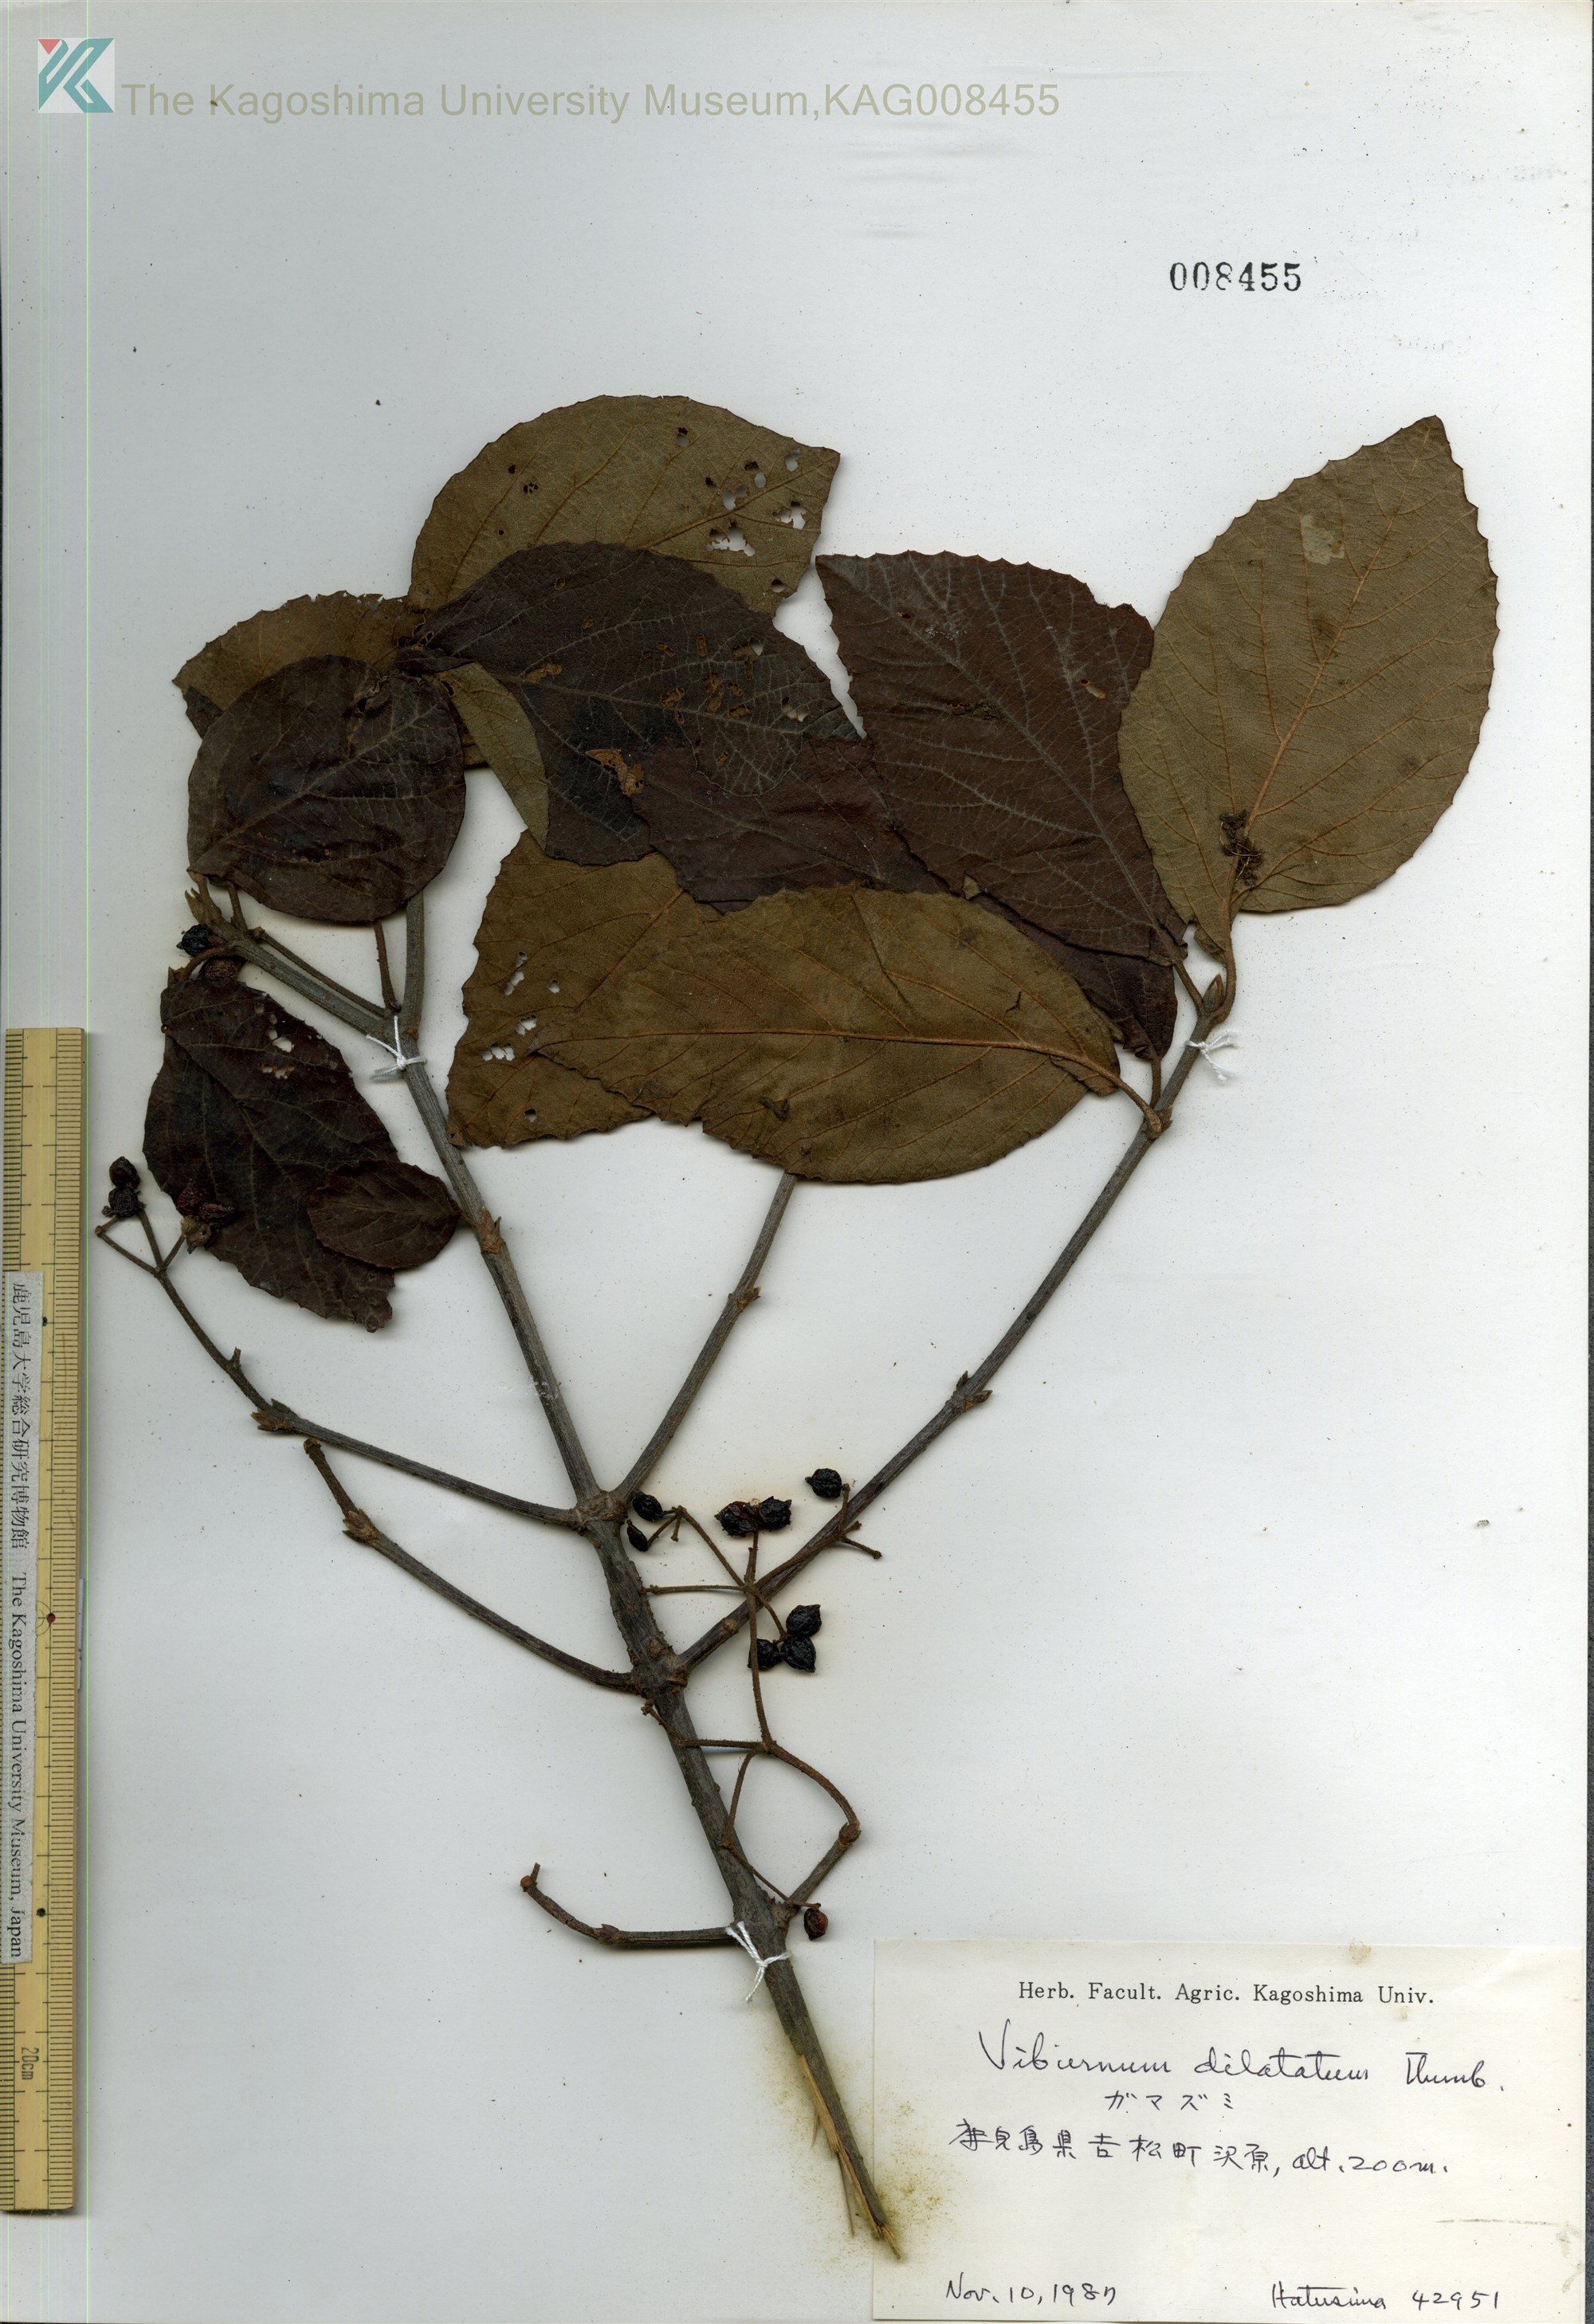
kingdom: Plantae
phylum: Tracheophyta
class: Magnoliopsida
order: Dipsacales
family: Viburnaceae
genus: Viburnum
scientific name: Viburnum dilatatum
